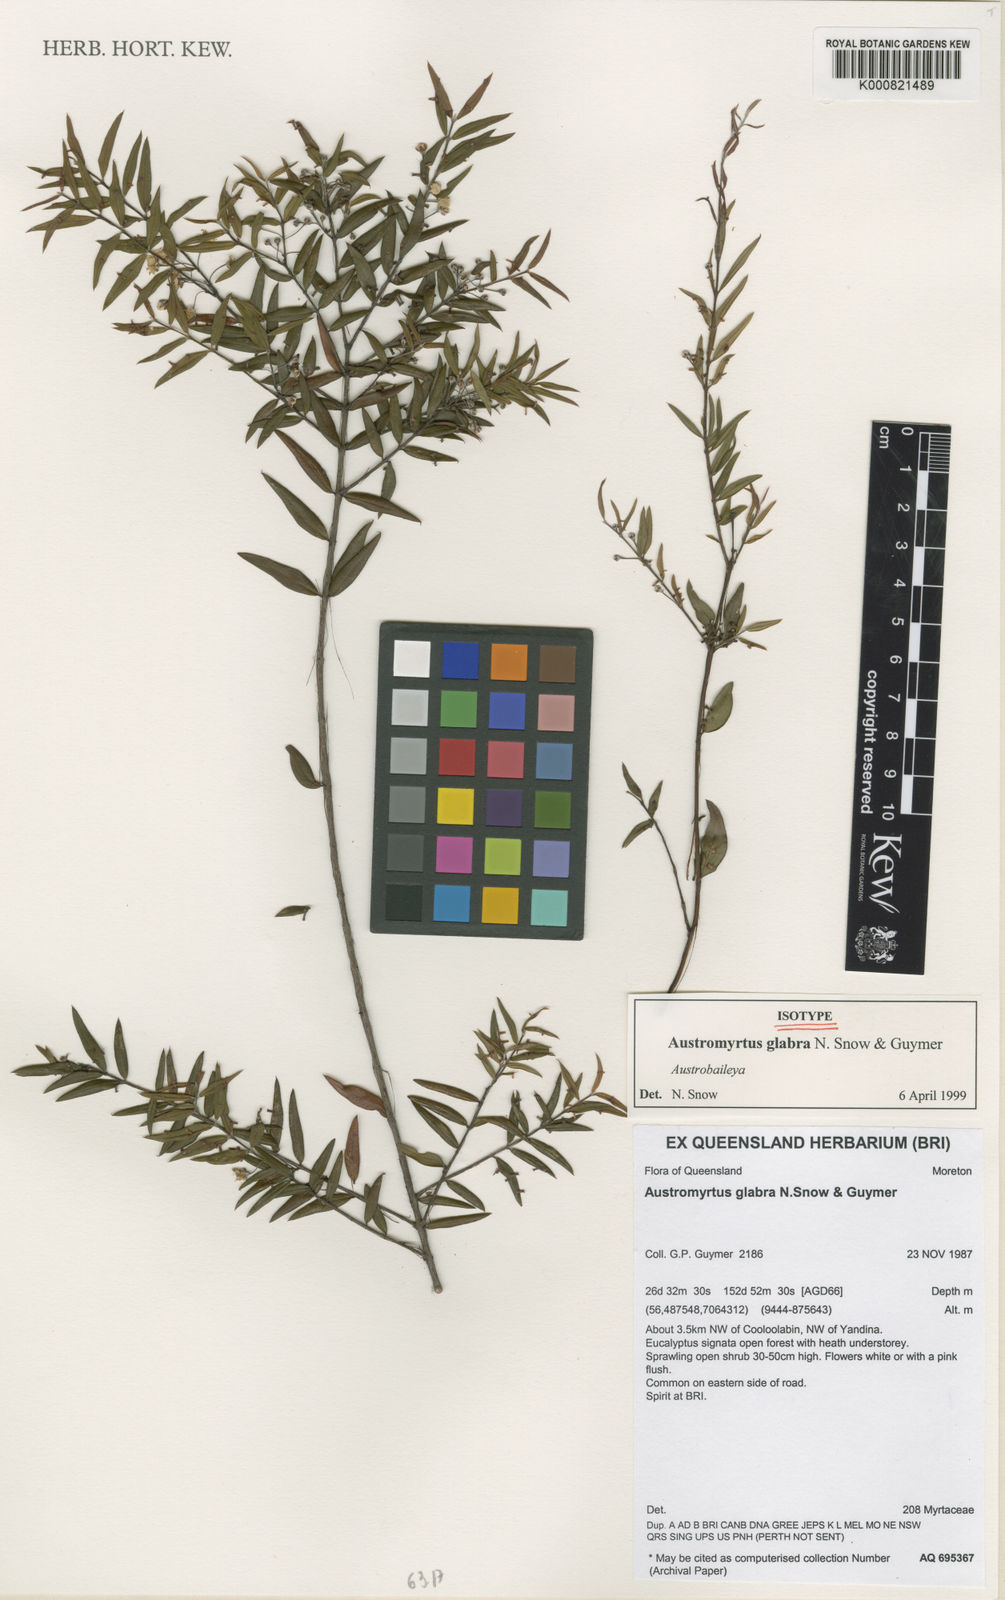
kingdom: Plantae
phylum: Tracheophyta
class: Magnoliopsida
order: Myrtales
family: Myrtaceae
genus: Austromyrtus
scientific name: Austromyrtus glabra
